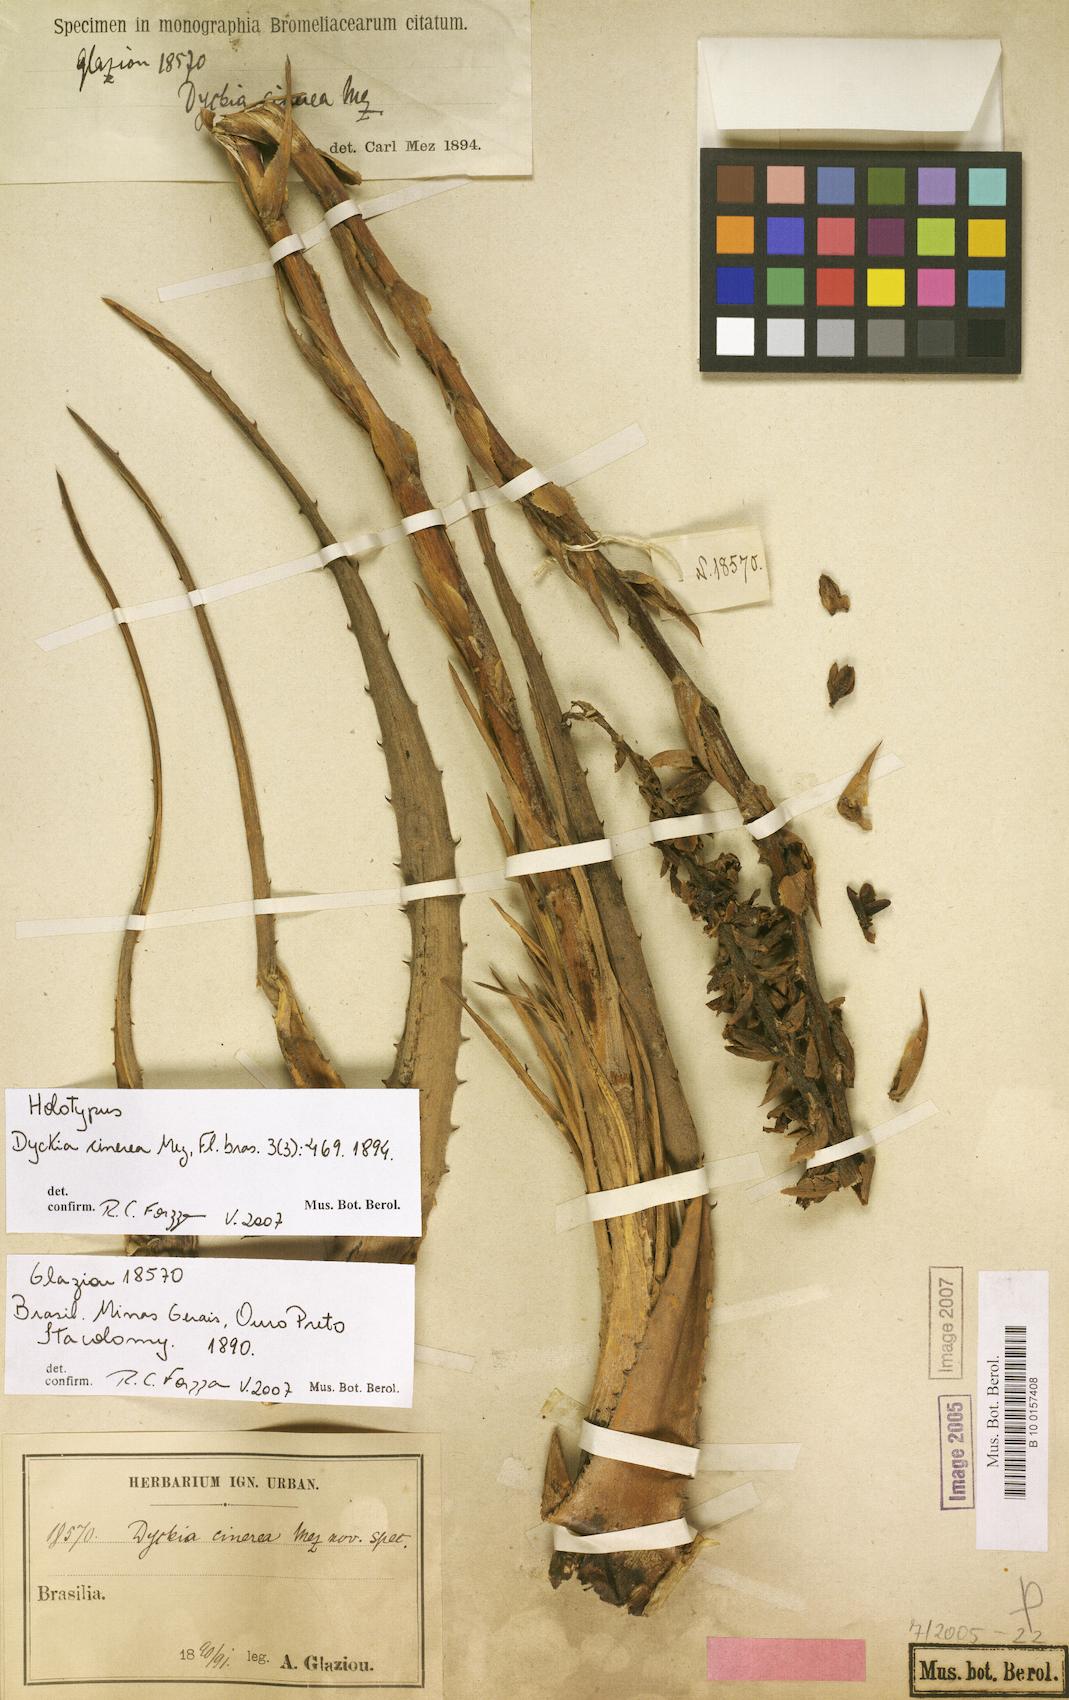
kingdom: Plantae
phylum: Tracheophyta
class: Liliopsida
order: Poales
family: Bromeliaceae
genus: Dyckia
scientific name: Dyckia cinerea
